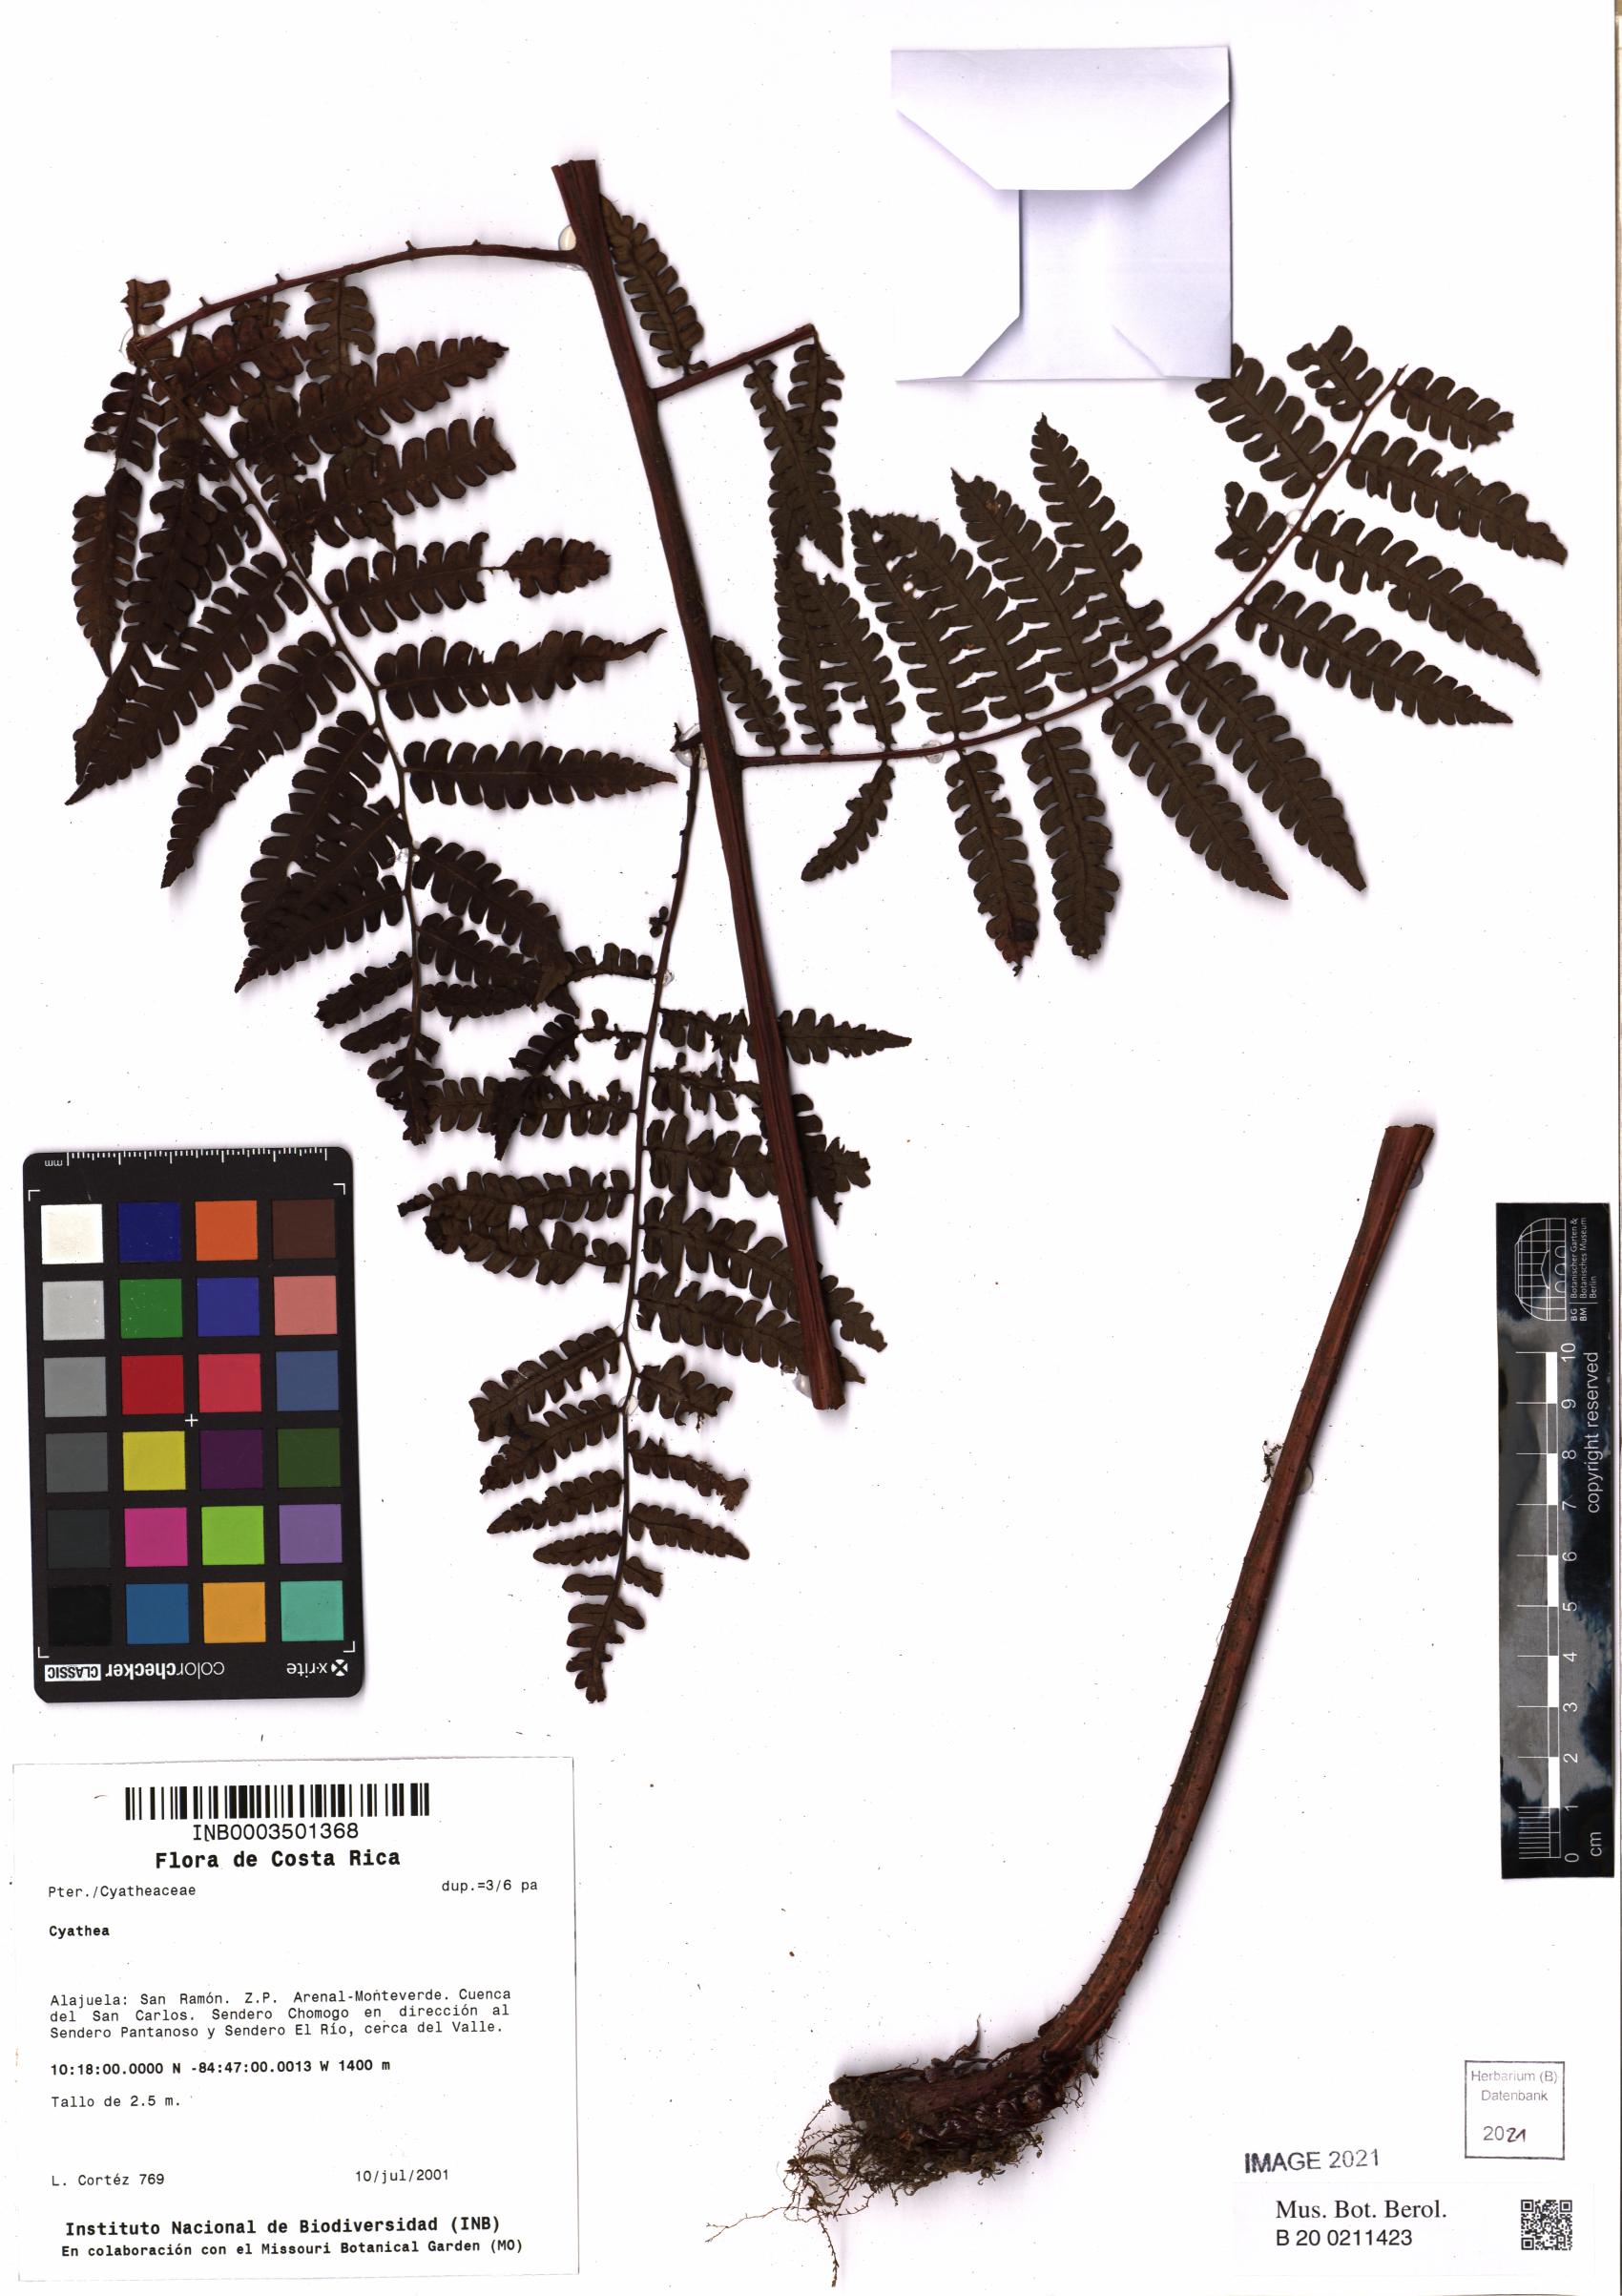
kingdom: Plantae
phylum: Tracheophyta
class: Polypodiopsida
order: Cyatheales
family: Cyatheaceae
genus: Cyathea
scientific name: Cyathea
